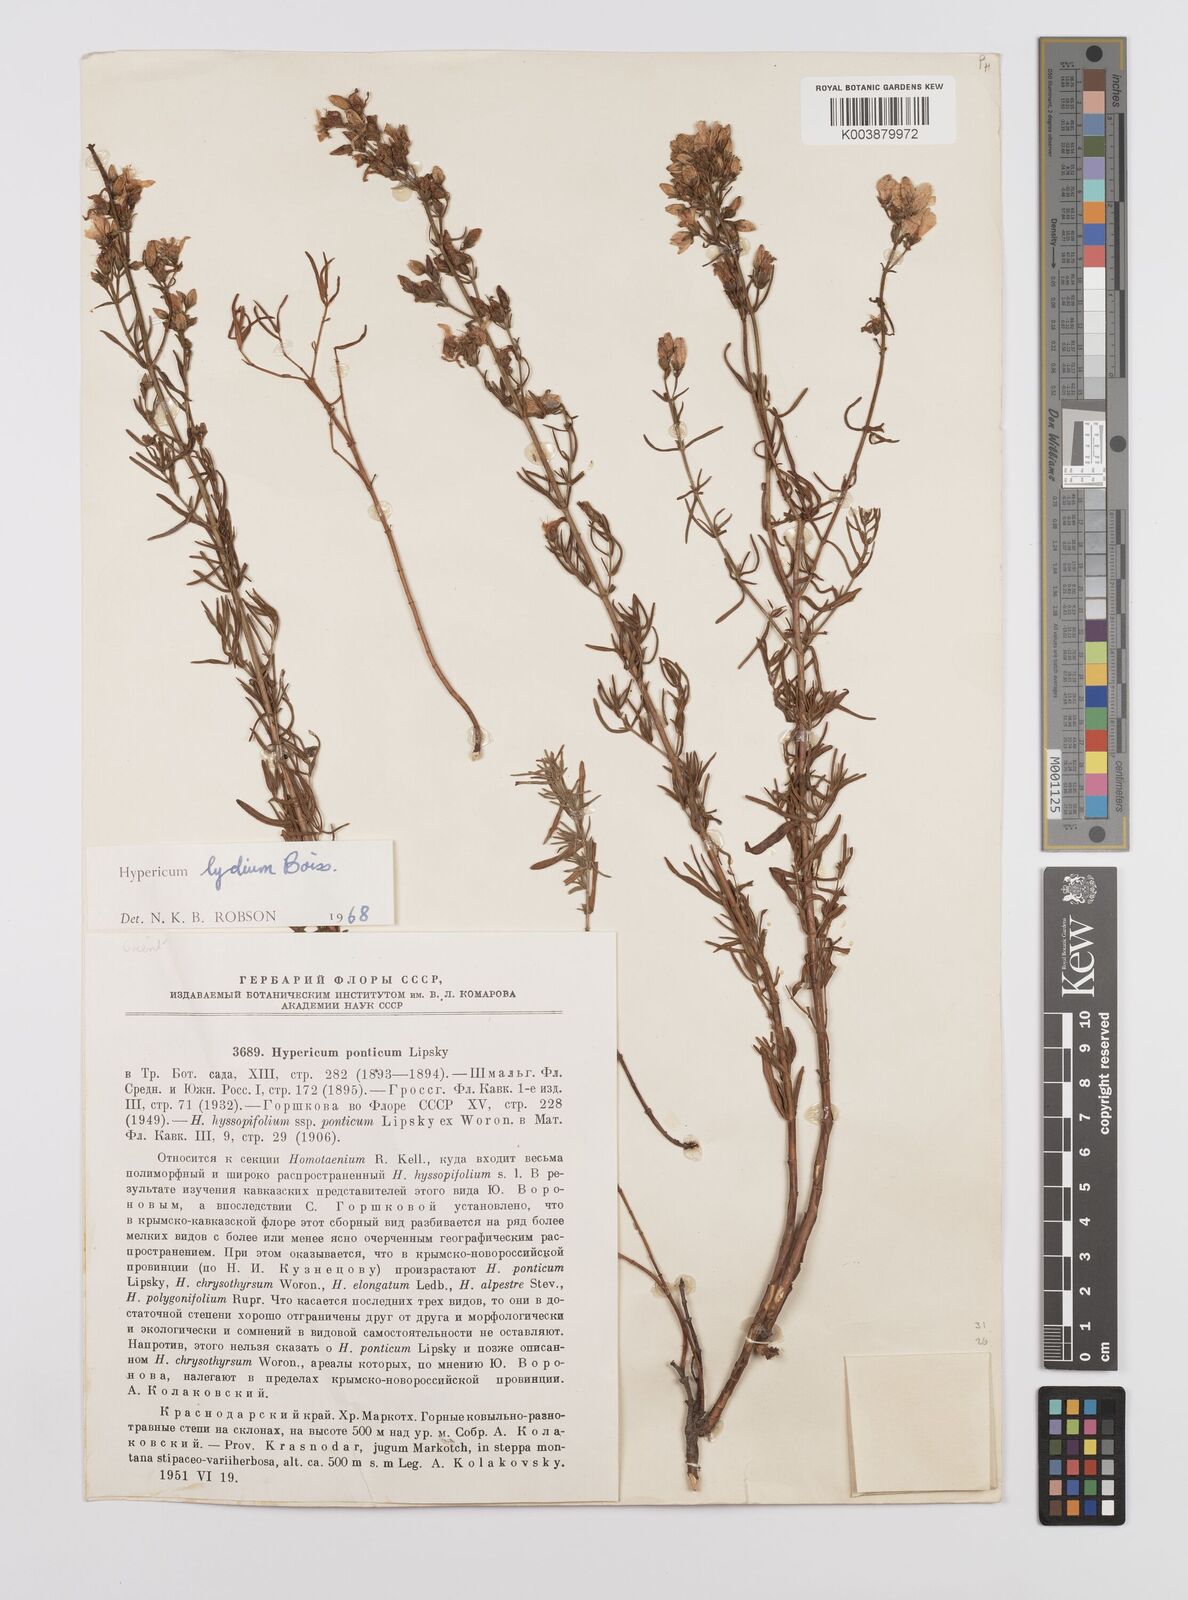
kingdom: Plantae
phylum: Tracheophyta
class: Magnoliopsida
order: Malpighiales
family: Hypericaceae
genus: Hypericum
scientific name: Hypericum lydium
